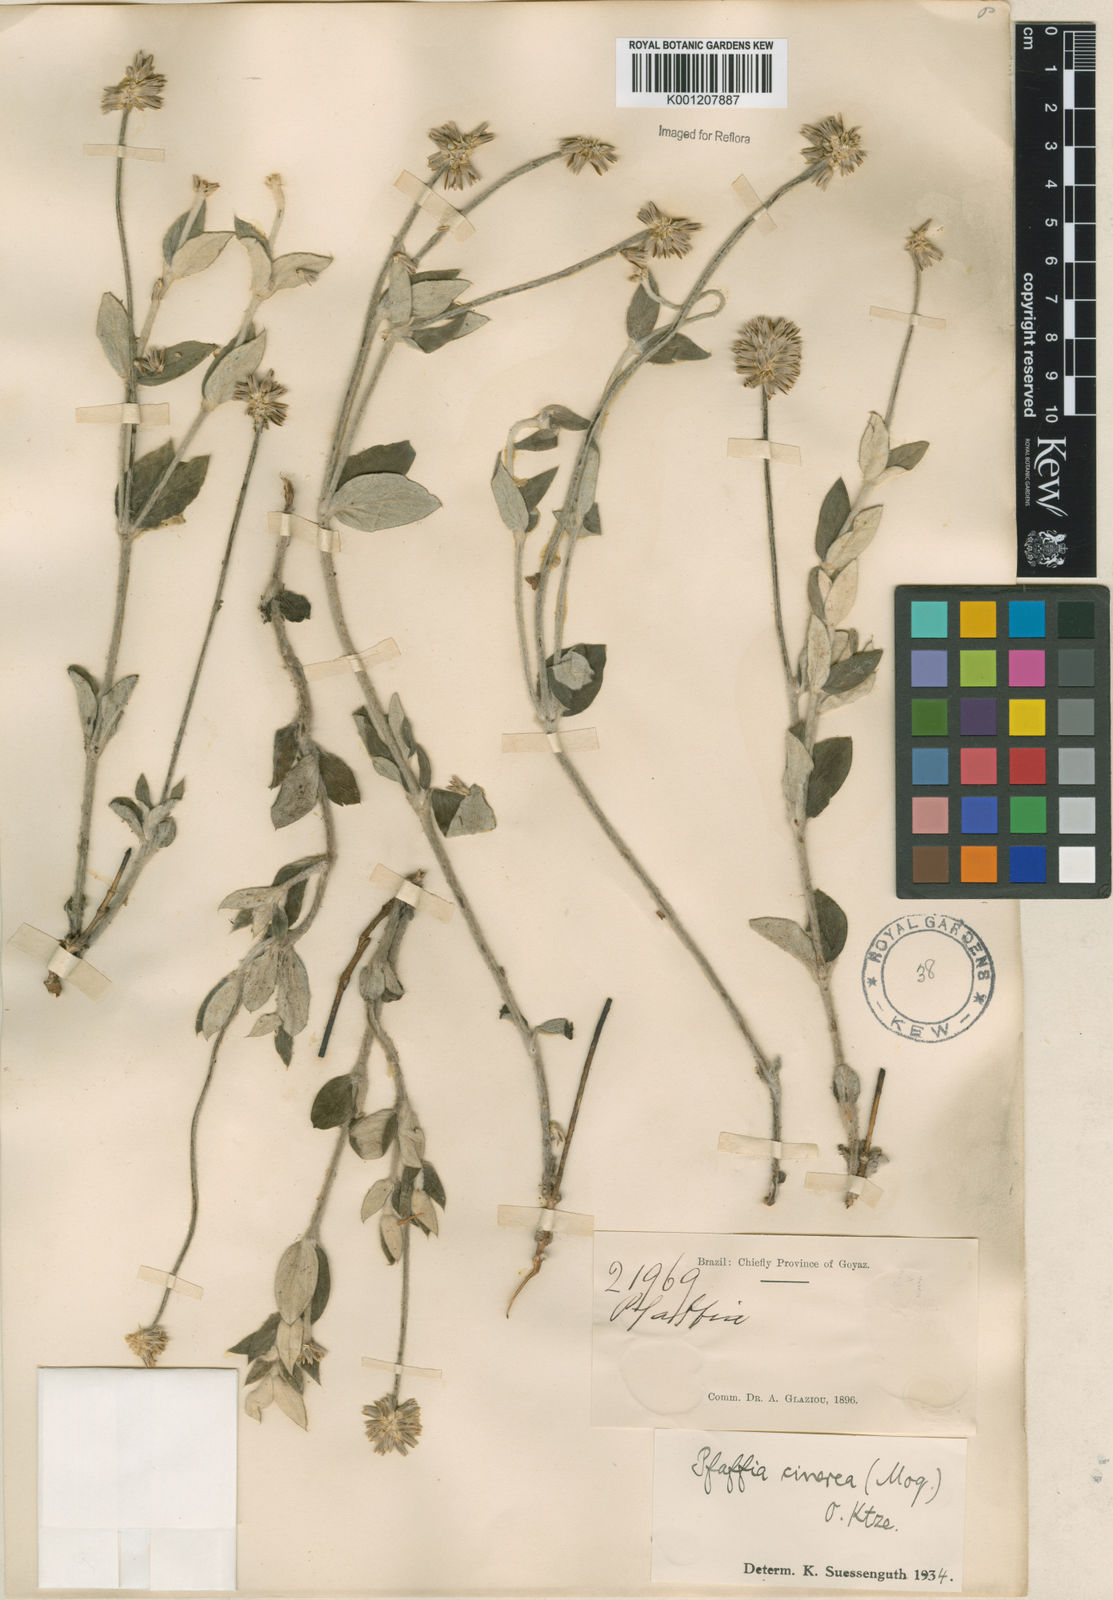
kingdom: Plantae
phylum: Tracheophyta
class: Magnoliopsida
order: Caryophyllales
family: Amaranthaceae
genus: Pfaffia
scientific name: Pfaffia sericantha
